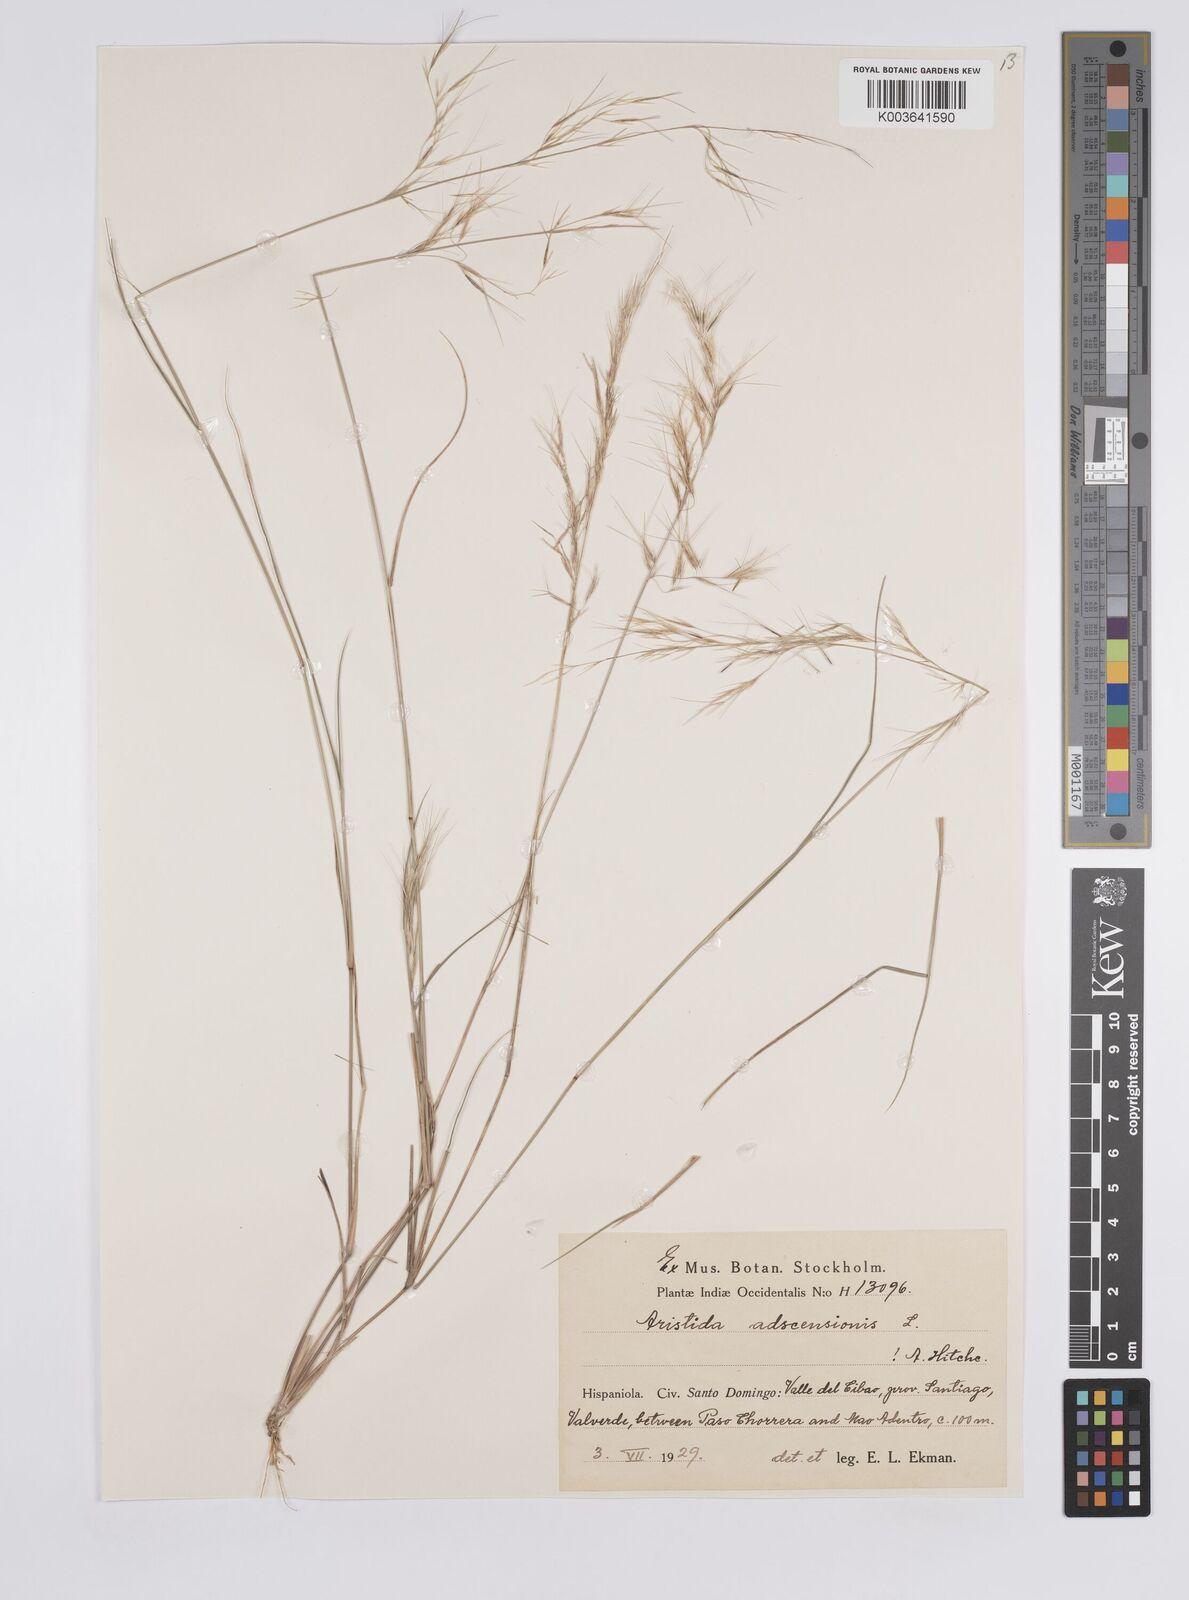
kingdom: Plantae
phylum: Tracheophyta
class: Liliopsida
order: Poales
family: Poaceae
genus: Aristida
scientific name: Aristida adscensionis
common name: Sixweeks threeawn
